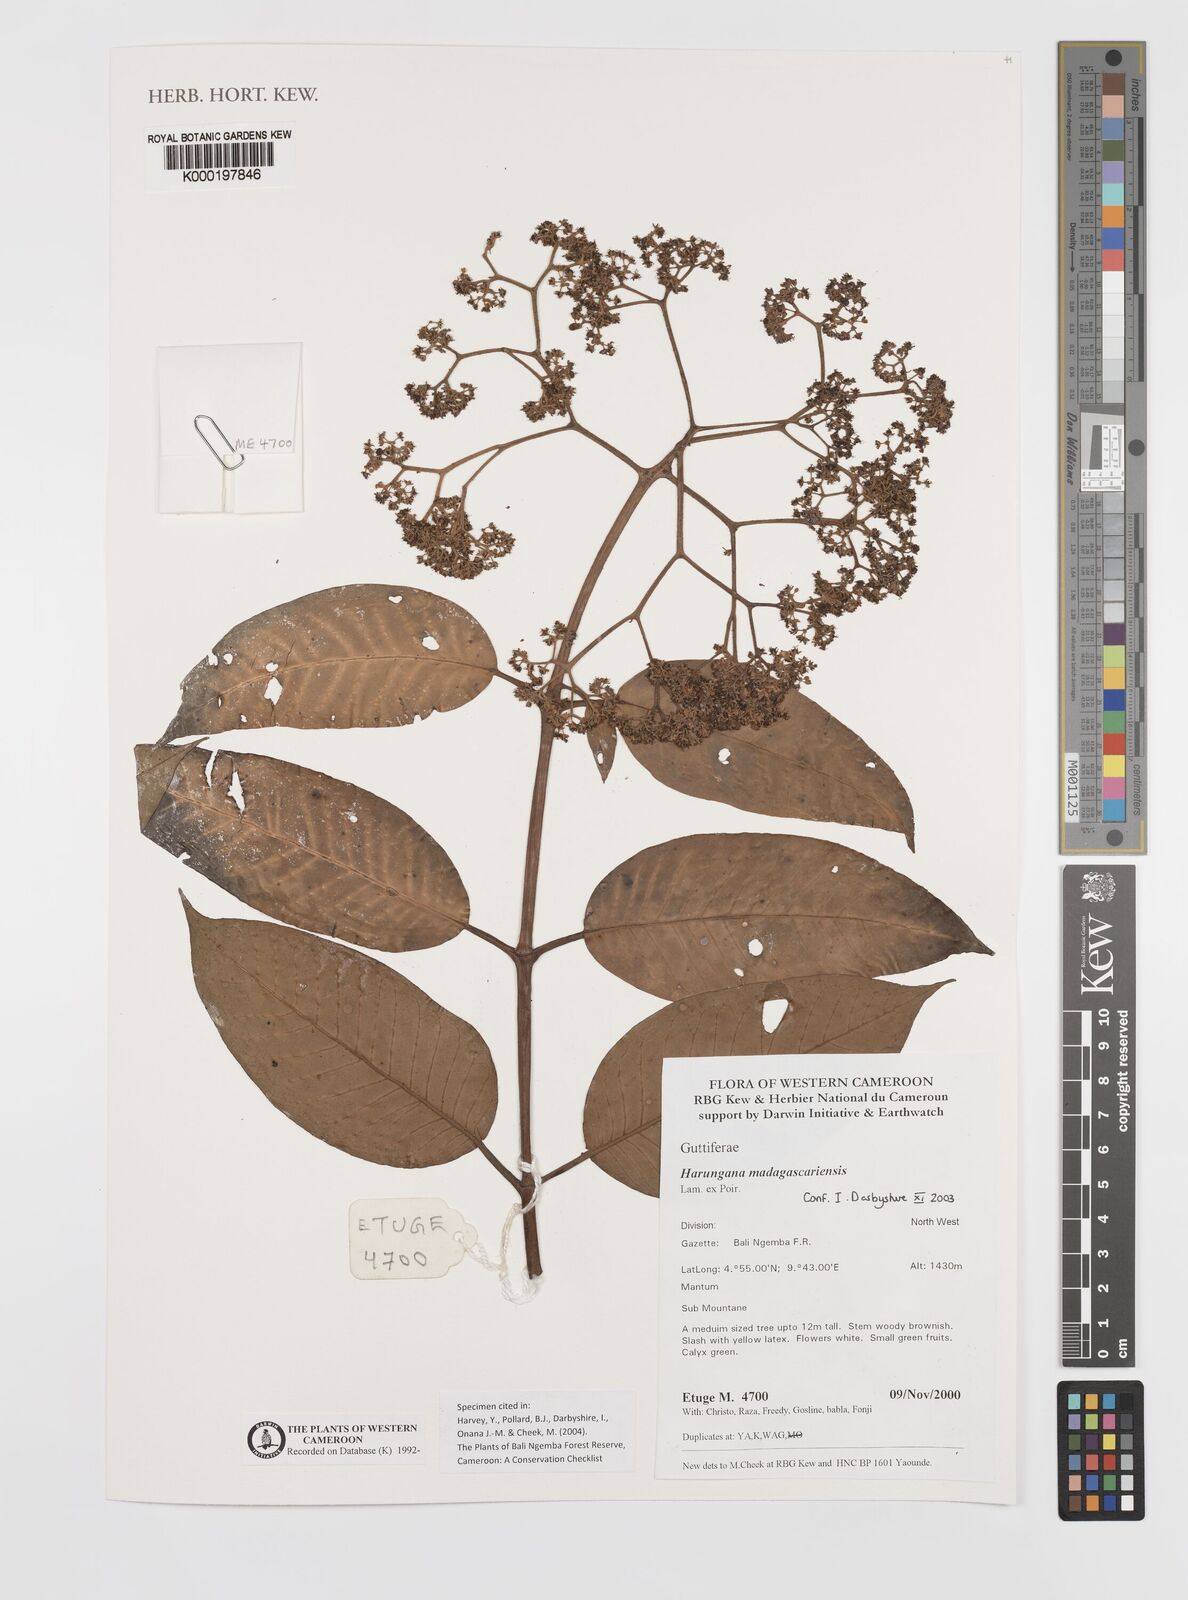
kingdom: Plantae
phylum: Tracheophyta
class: Magnoliopsida
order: Malpighiales
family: Hypericaceae
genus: Harungana
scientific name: Harungana madagascariensis
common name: Orange milktree
